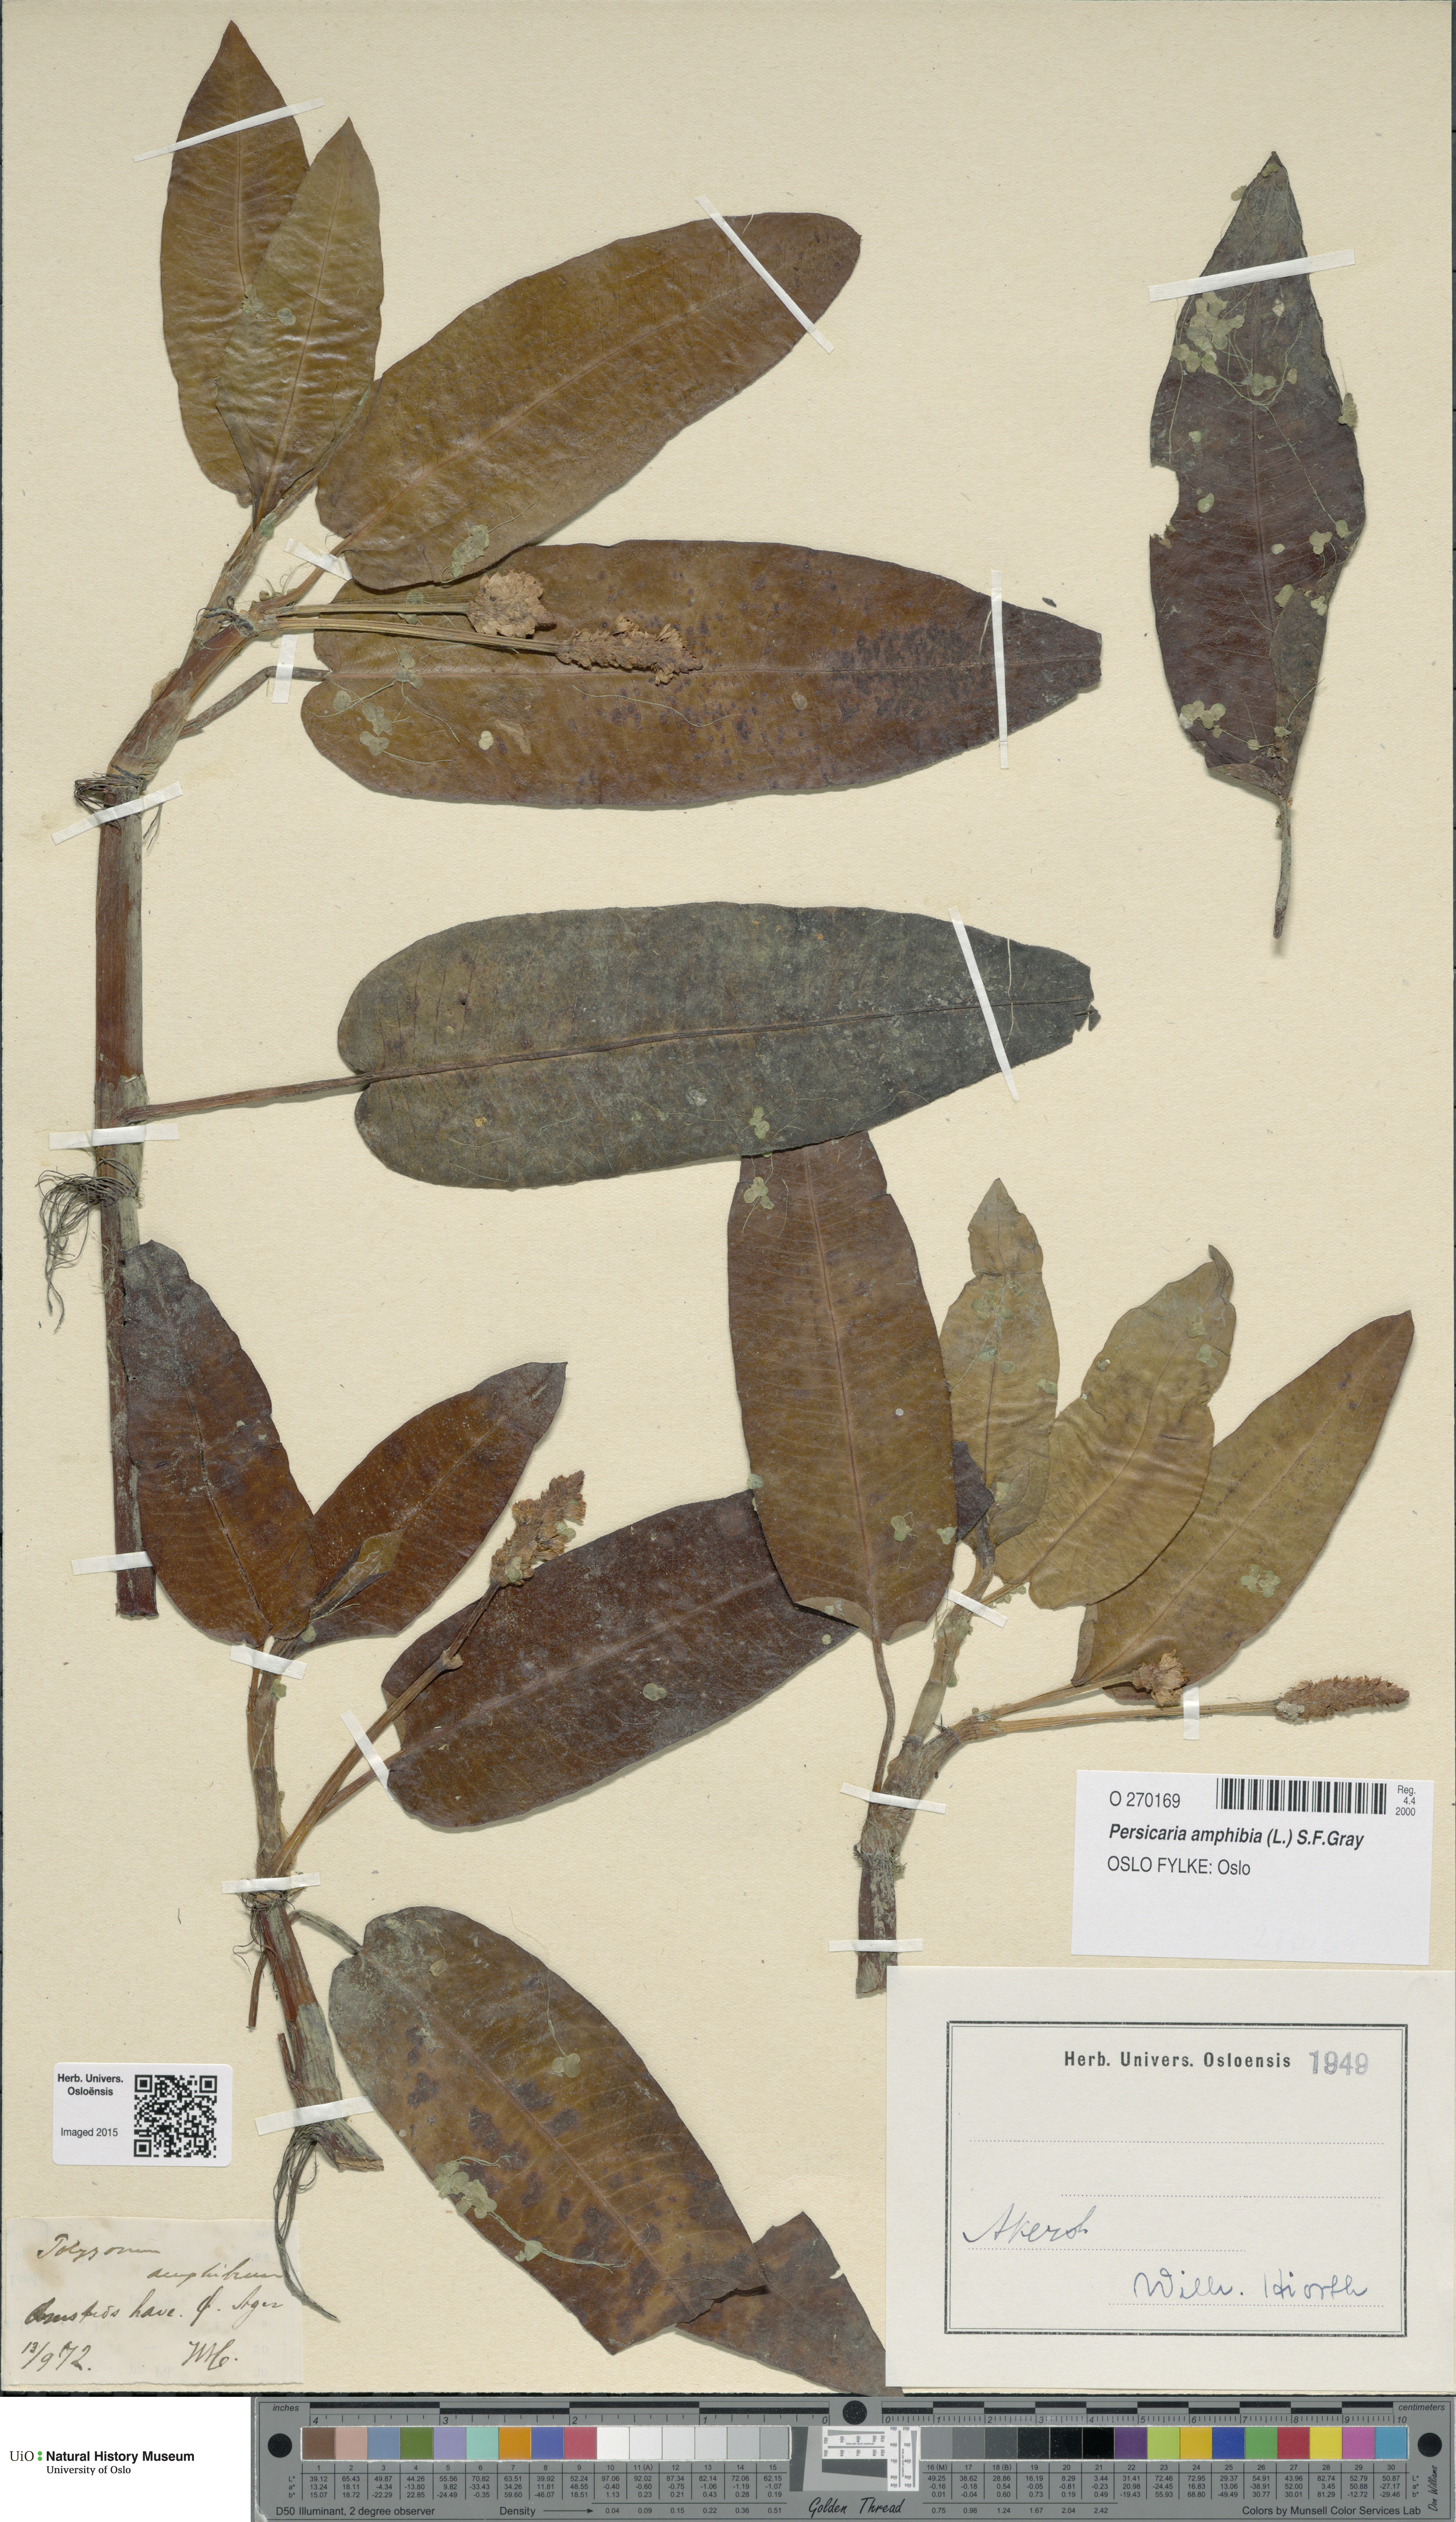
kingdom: Plantae
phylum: Tracheophyta
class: Magnoliopsida
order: Caryophyllales
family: Polygonaceae
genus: Persicaria
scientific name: Persicaria amphibia
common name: Amphibious bistort
